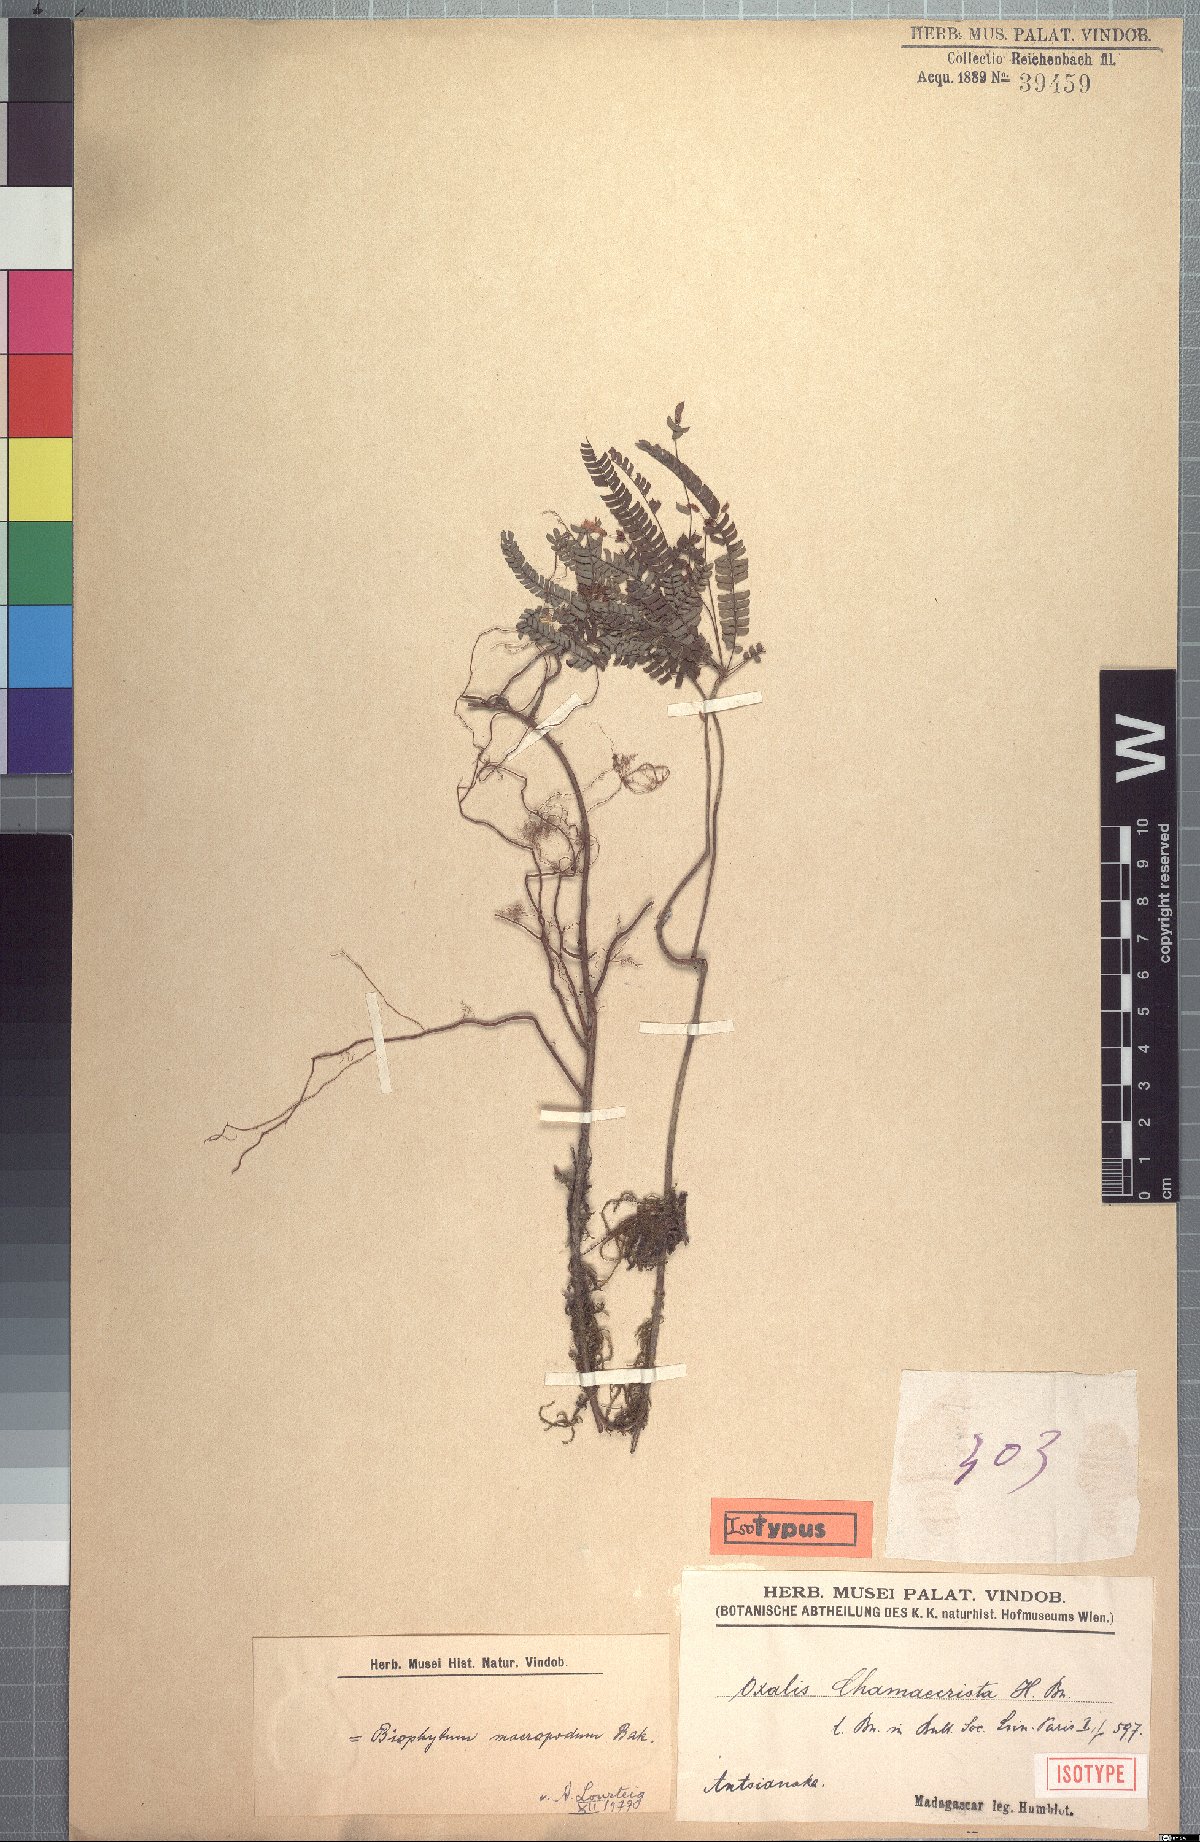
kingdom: Plantae
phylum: Tracheophyta
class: Magnoliopsida
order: Oxalidales
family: Oxalidaceae
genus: Oxalis
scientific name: Oxalis macropoda
